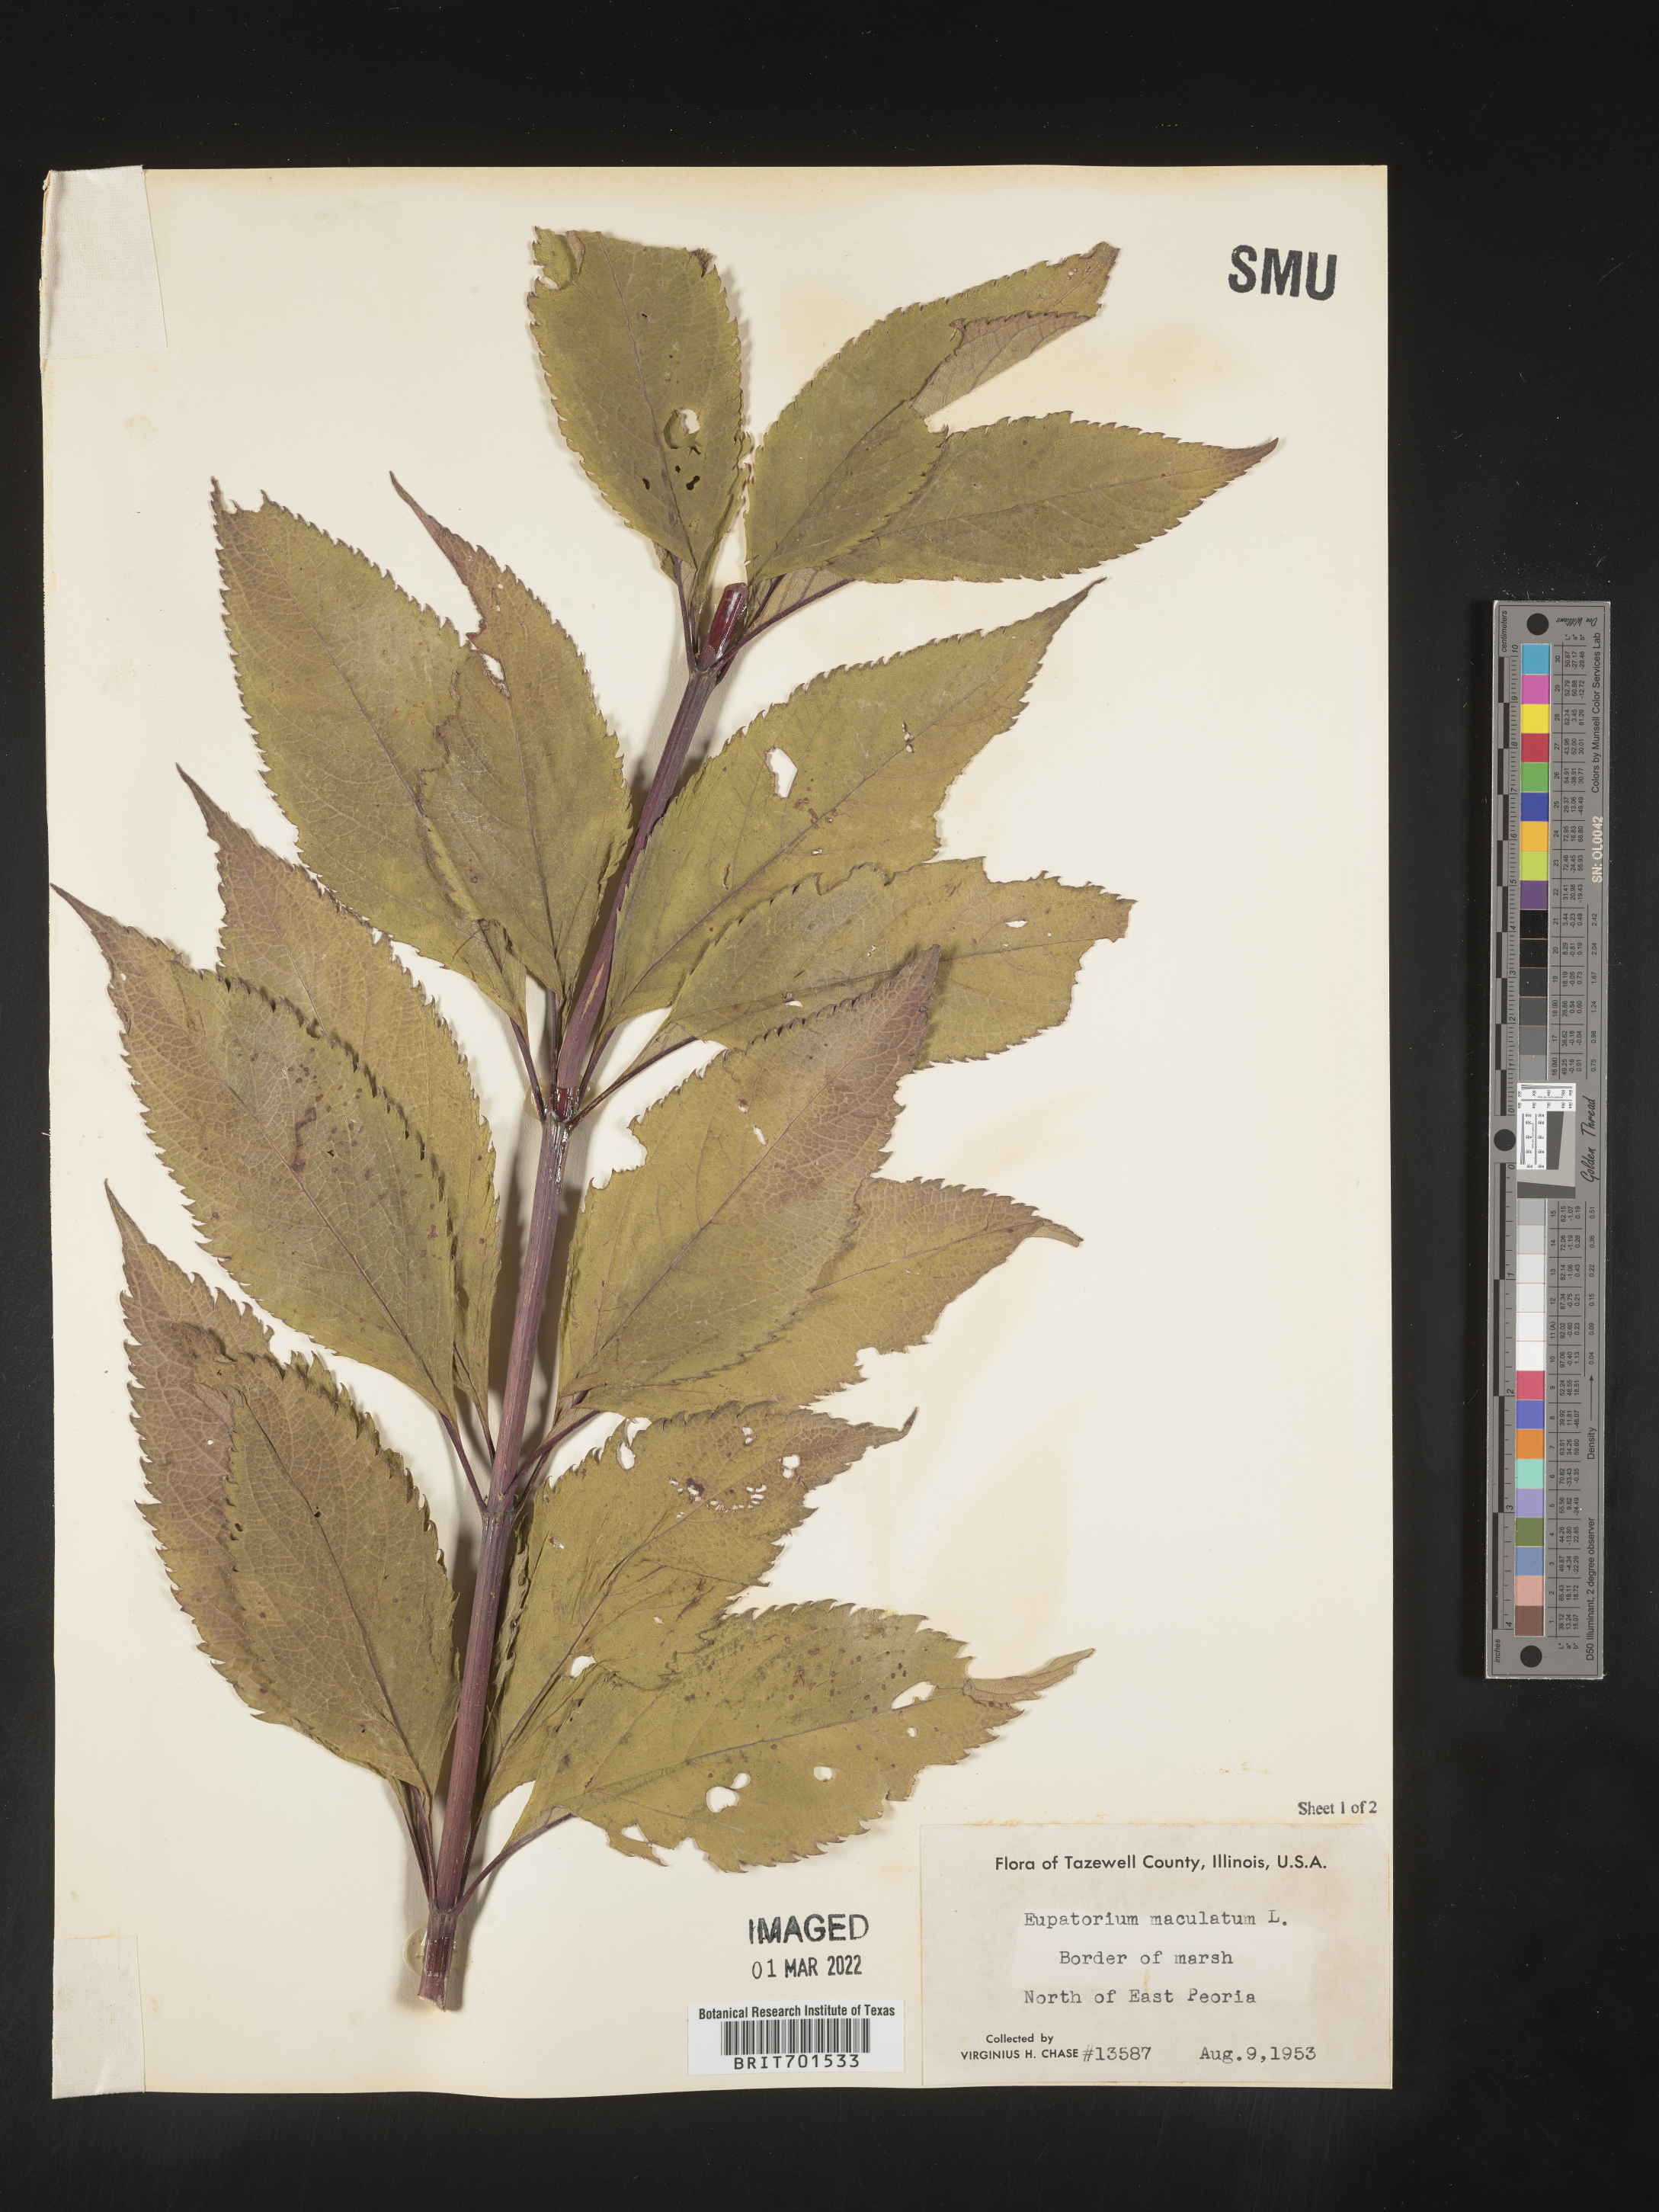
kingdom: Plantae
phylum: Tracheophyta
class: Magnoliopsida
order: Asterales
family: Asteraceae
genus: Eutrochium
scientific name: Eutrochium maculatum
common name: Spotted joe pye weed
